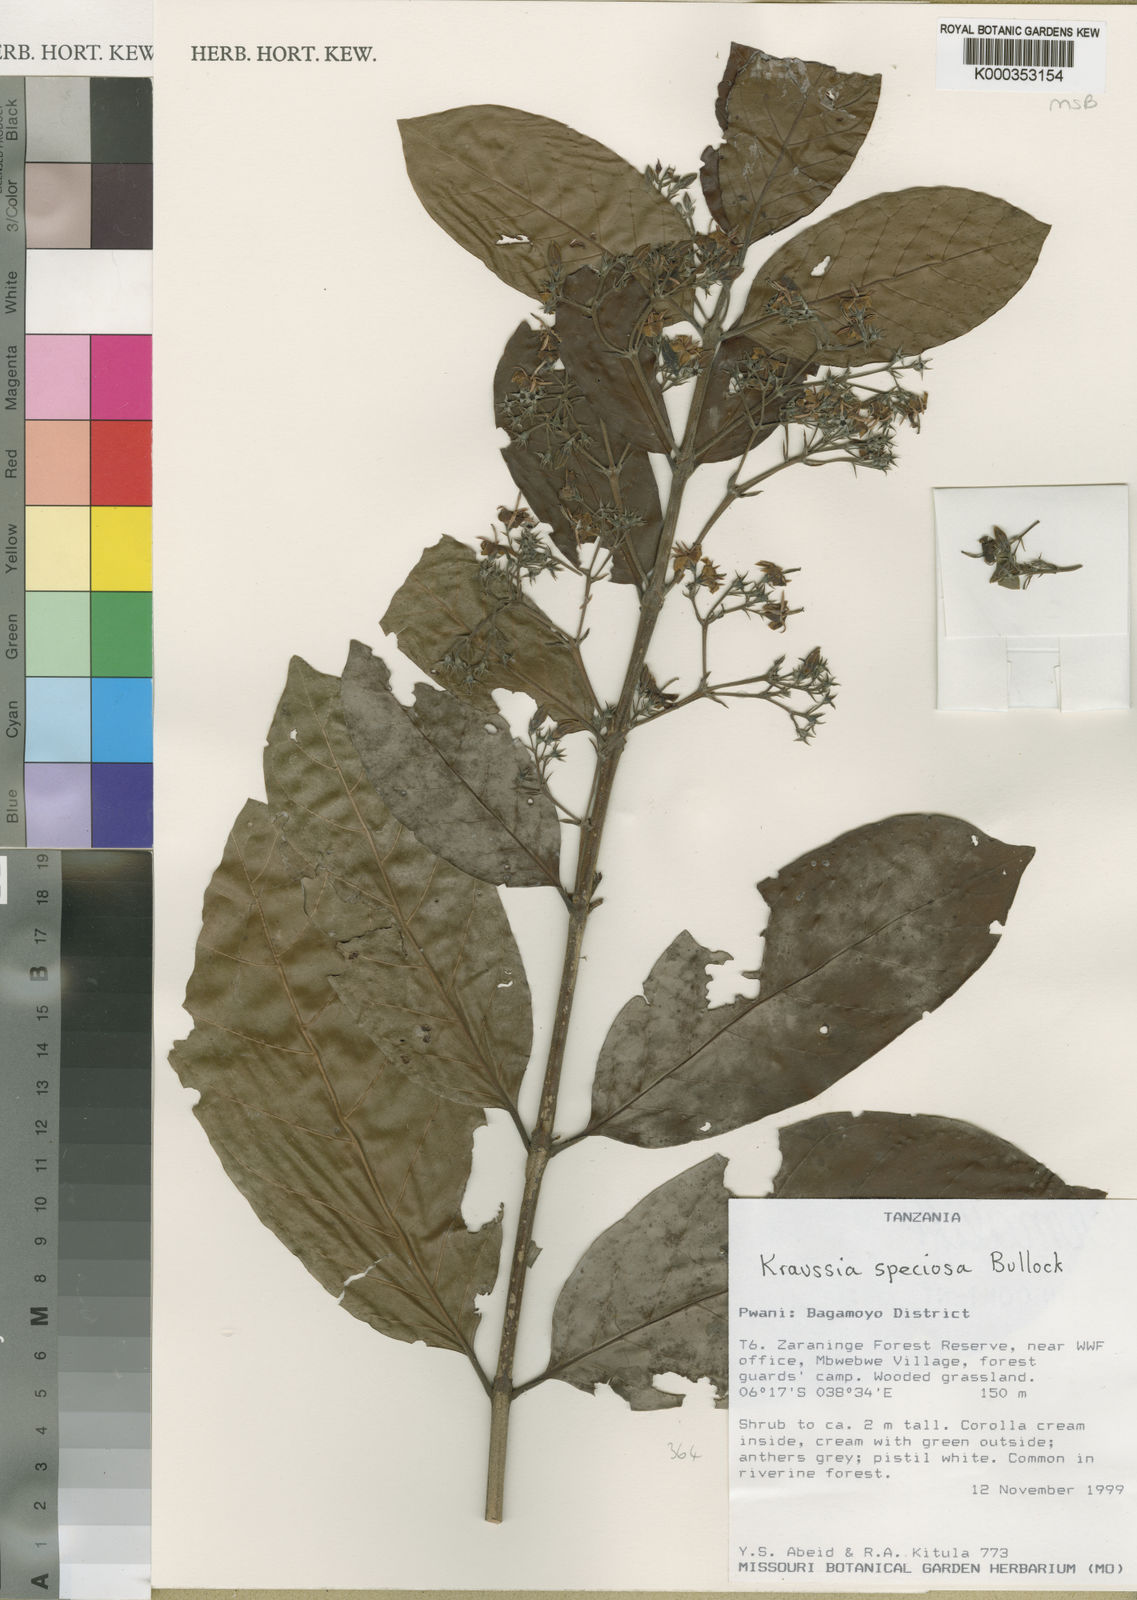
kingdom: Plantae
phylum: Tracheophyta
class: Magnoliopsida
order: Gentianales
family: Rubiaceae
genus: Kraussia
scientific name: Kraussia speciosa
